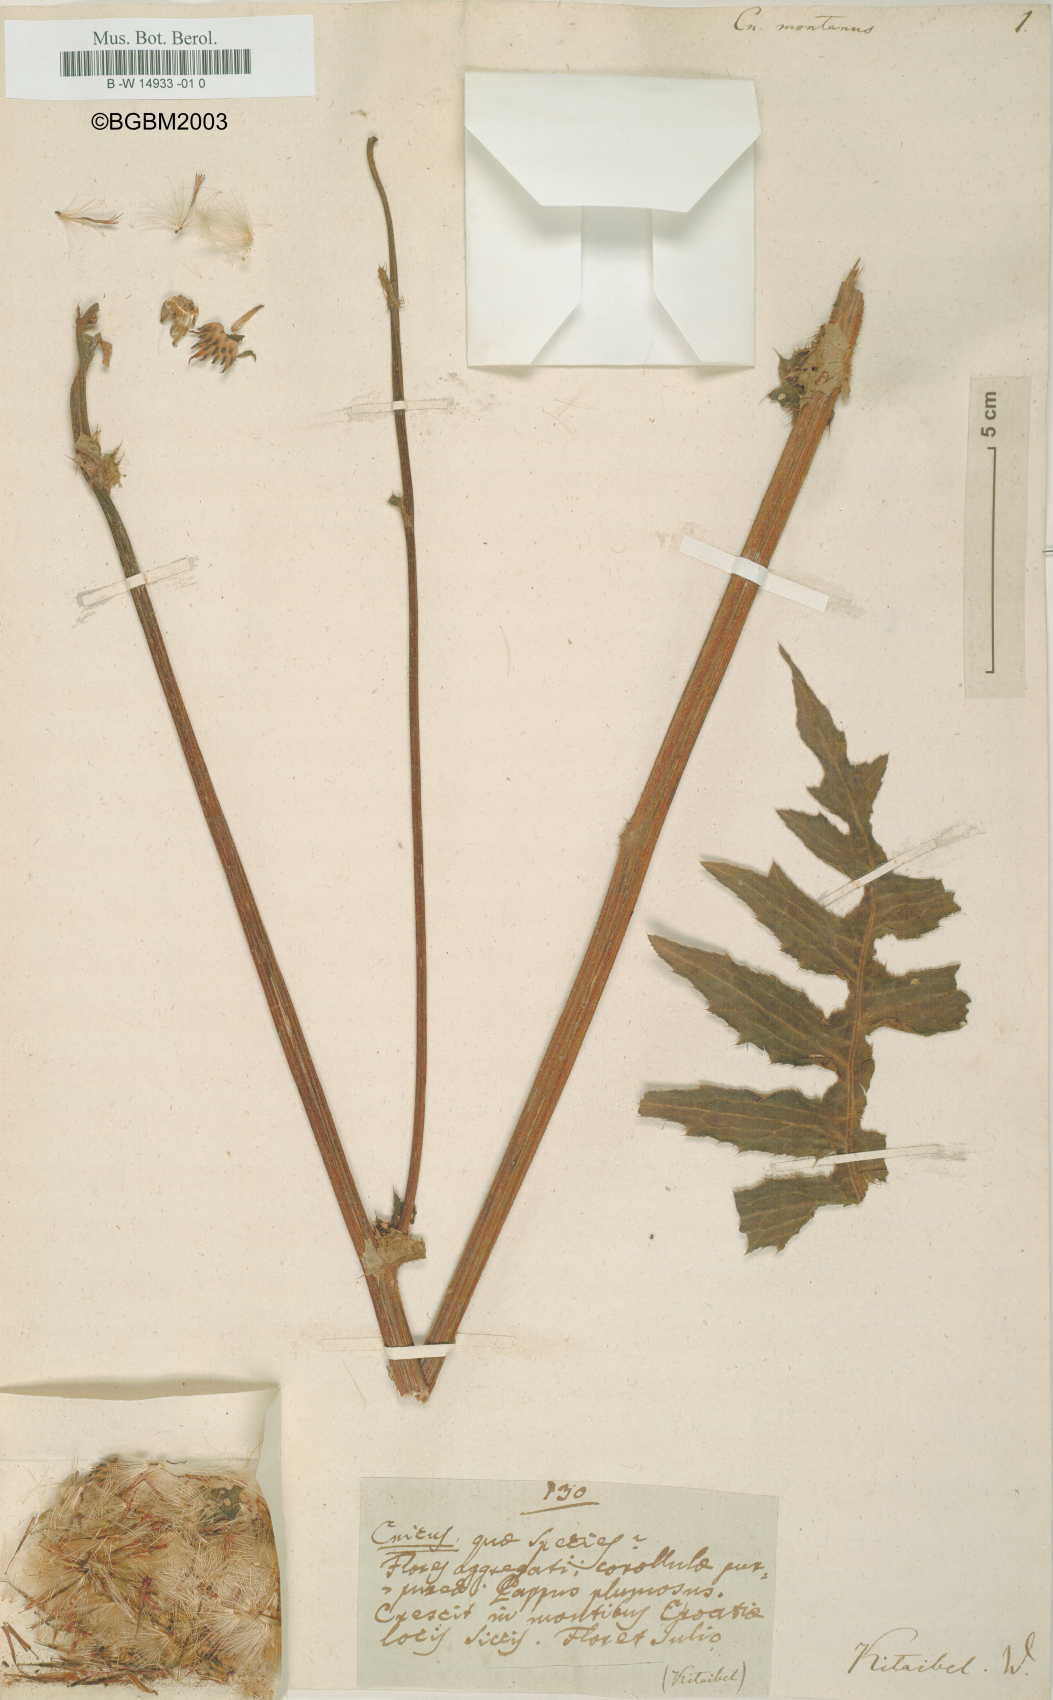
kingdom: Plantae
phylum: Tracheophyta
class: Magnoliopsida
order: Asterales
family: Asteraceae
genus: Cirsium
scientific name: Cirsium alsophilum
